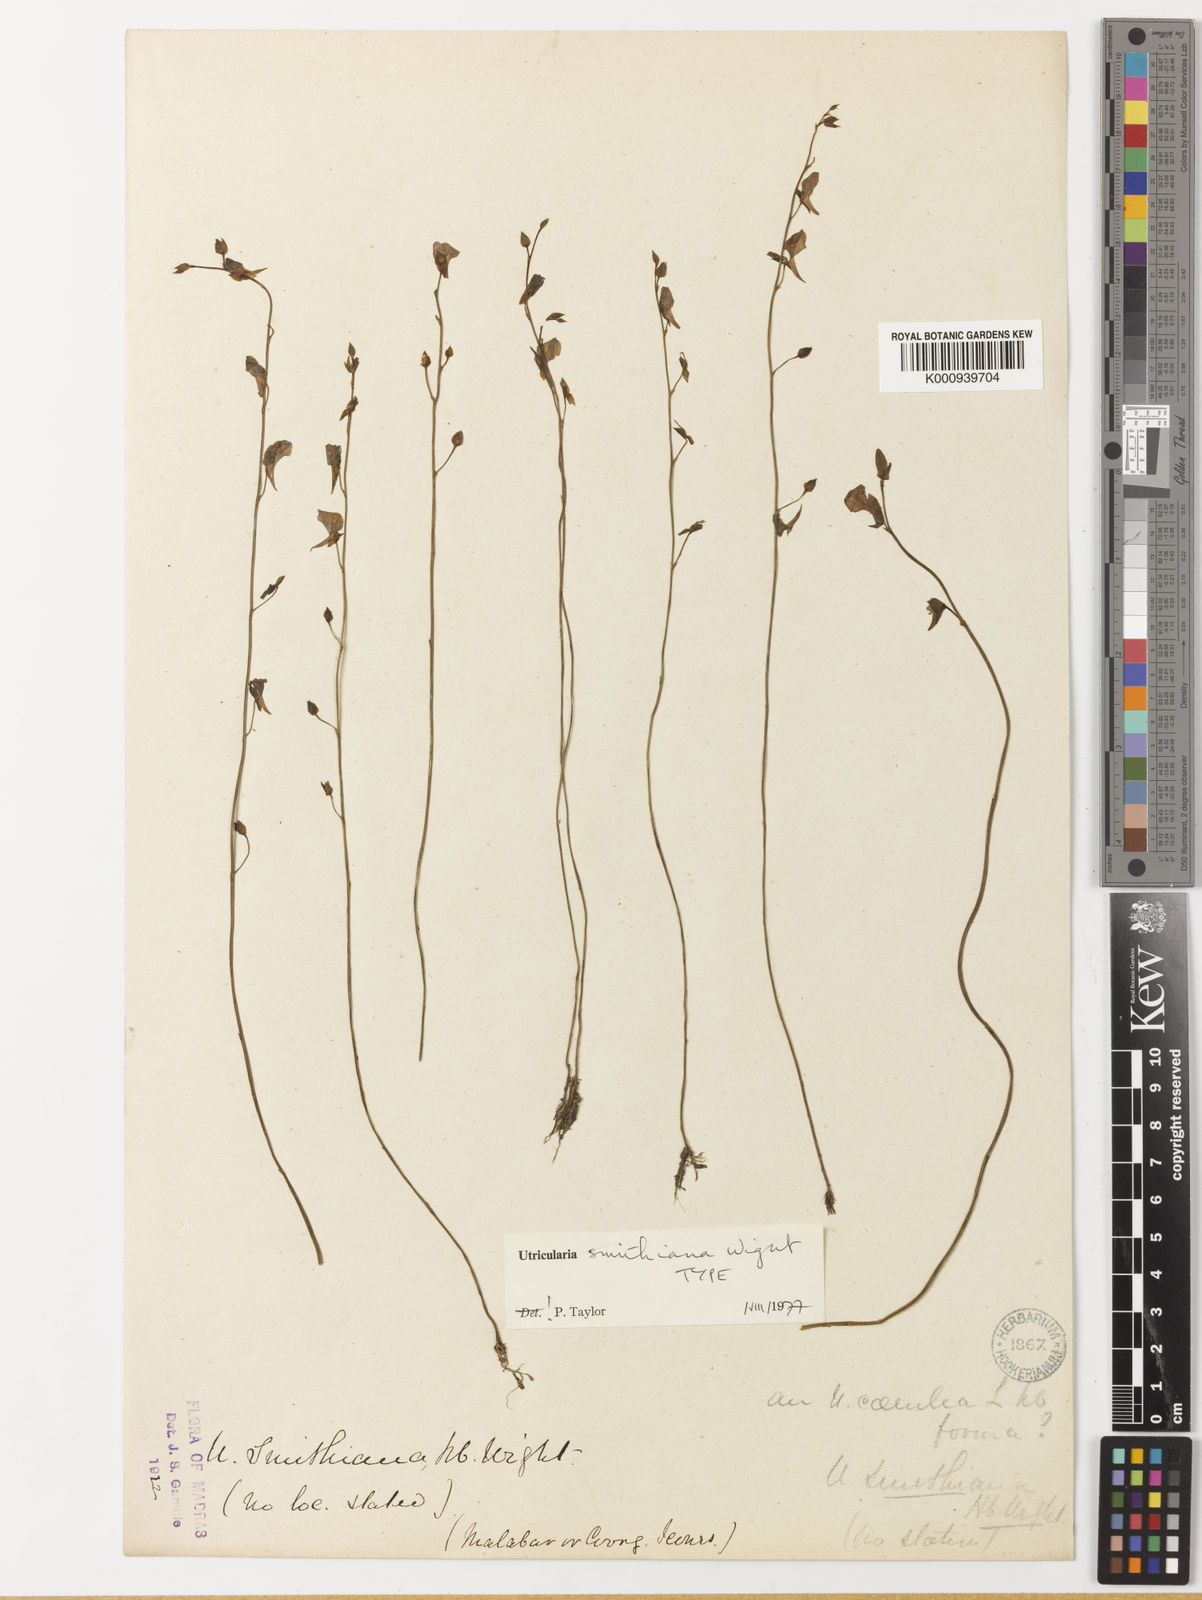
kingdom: Plantae
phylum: Tracheophyta
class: Magnoliopsida
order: Lamiales
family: Lentibulariaceae
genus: Utricularia
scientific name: Utricularia smithiana
